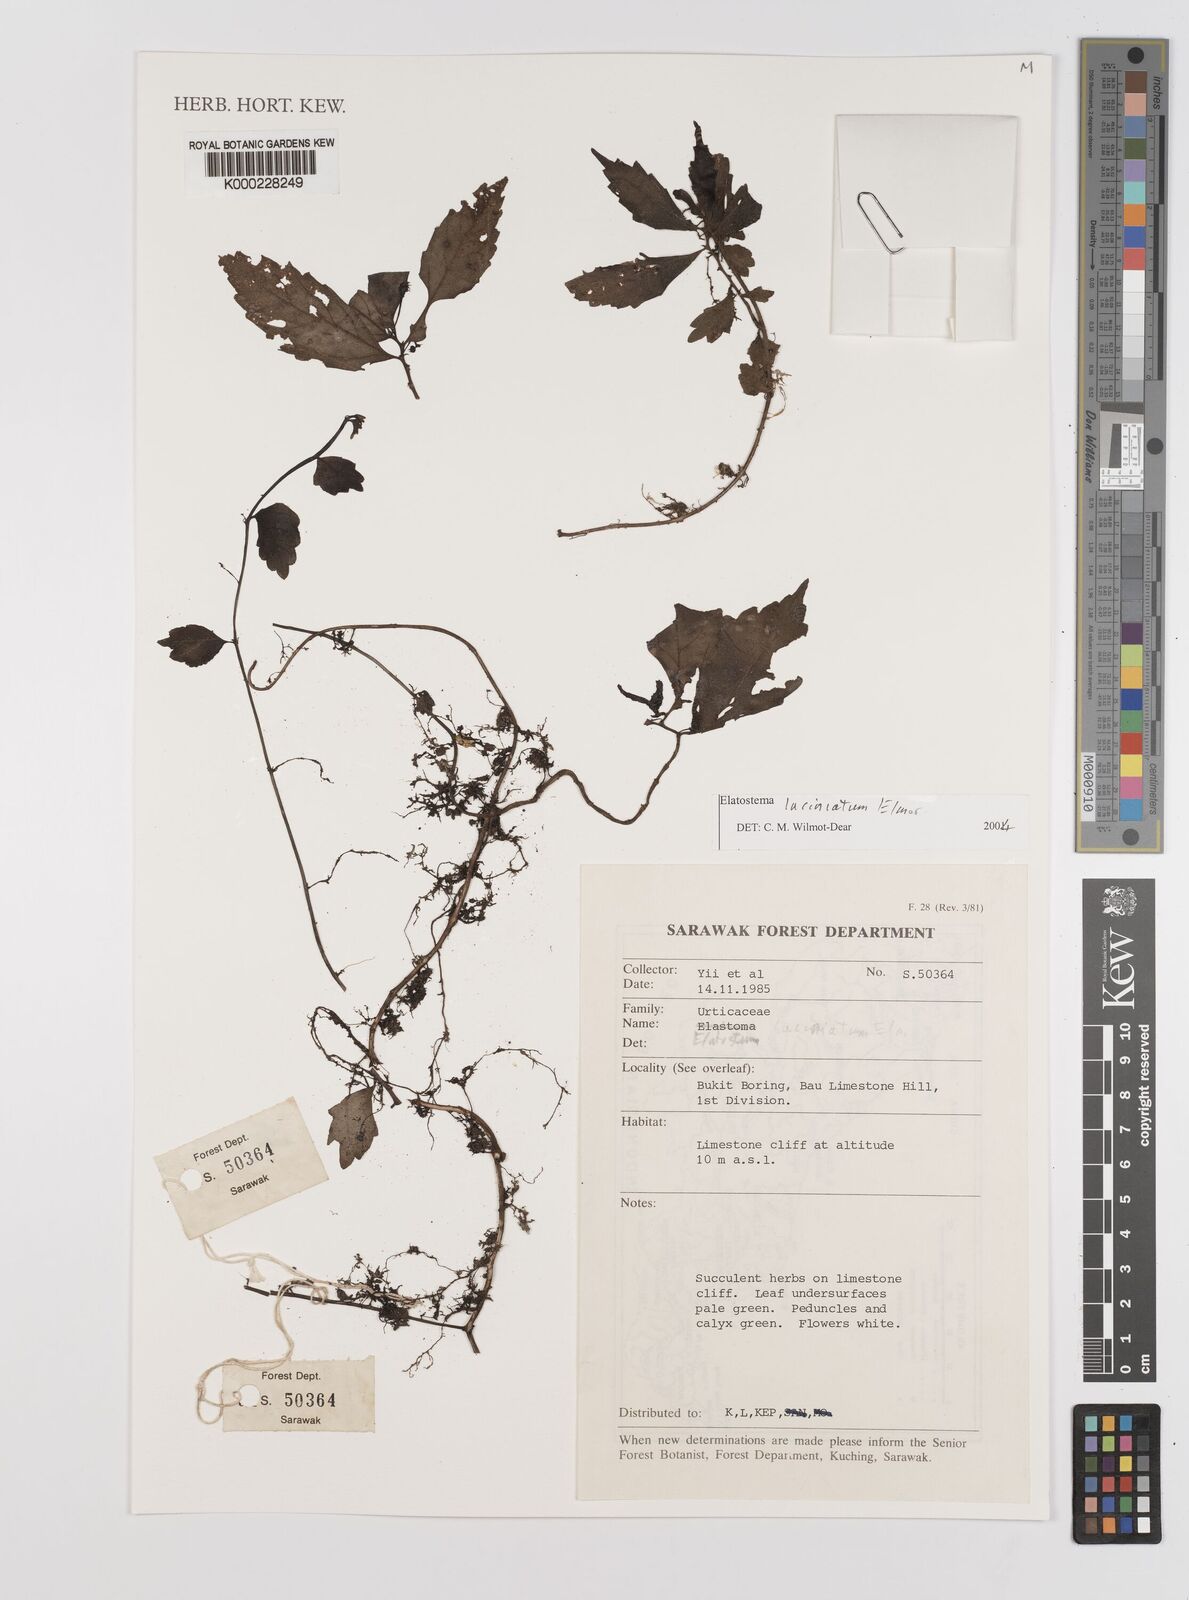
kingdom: Plantae
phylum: Tracheophyta
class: Magnoliopsida
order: Rosales
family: Urticaceae
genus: Elatostema
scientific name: Elatostema sinuatum
